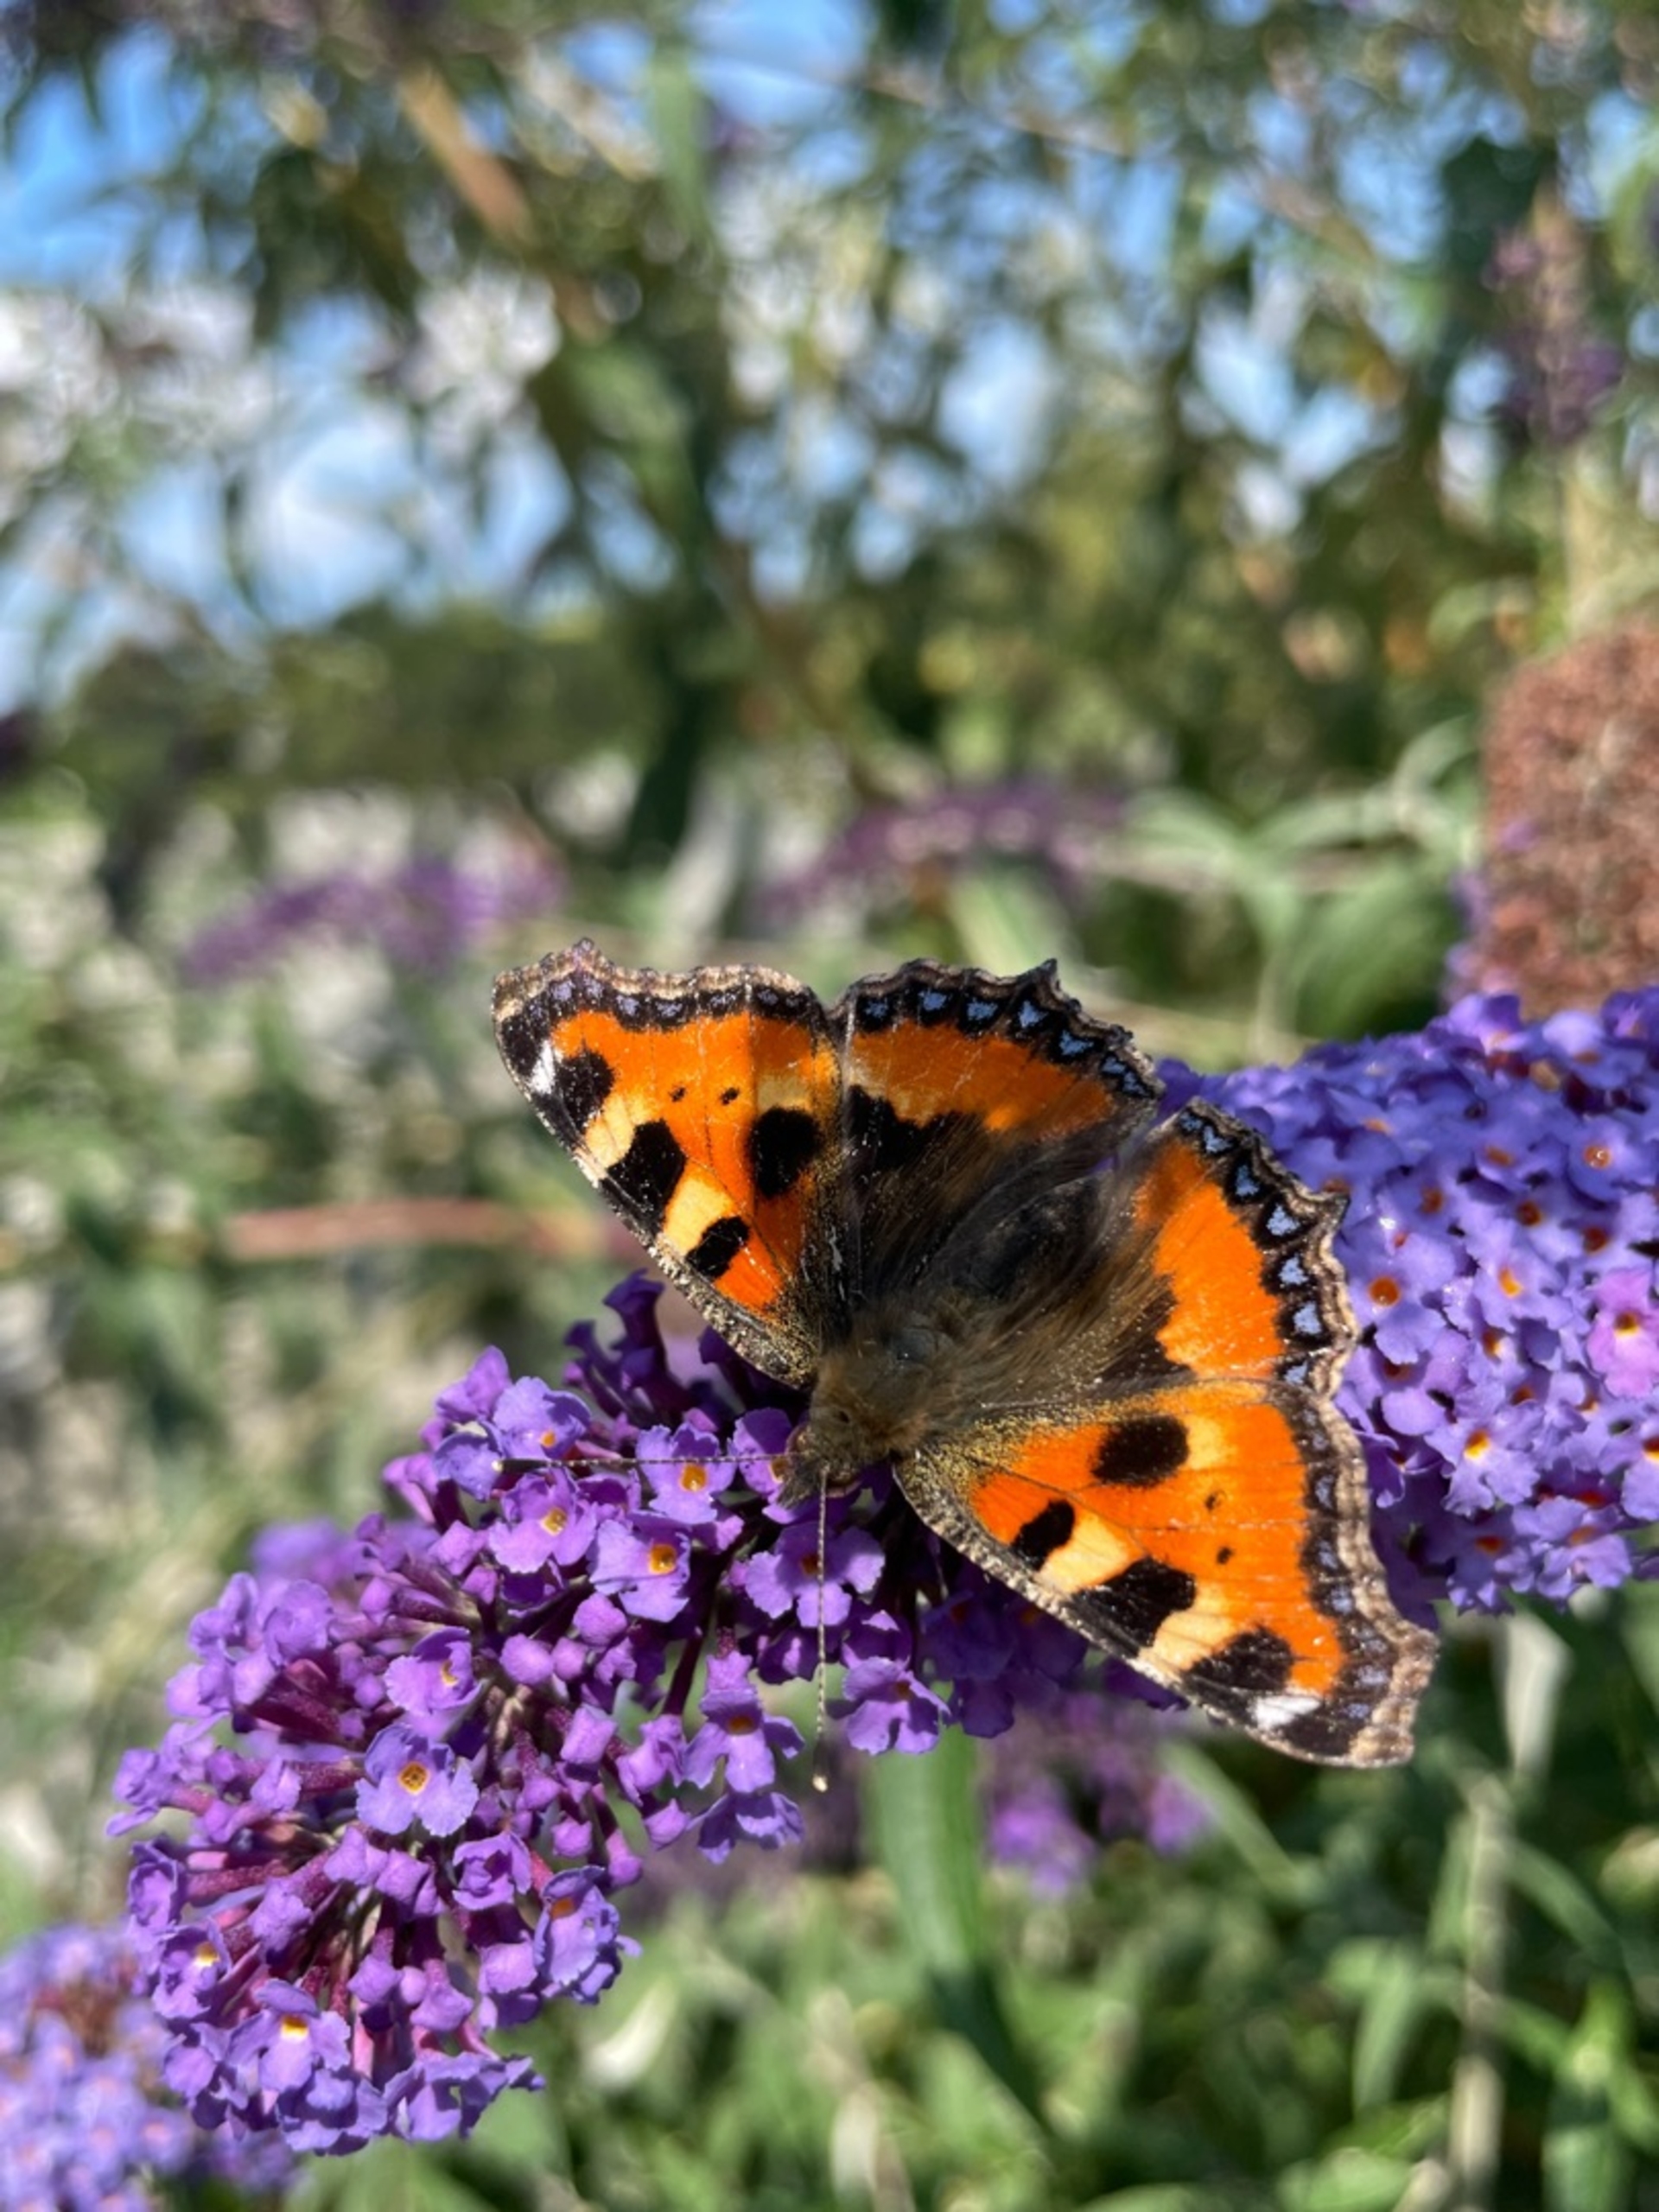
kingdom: Animalia
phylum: Arthropoda
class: Insecta
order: Lepidoptera
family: Nymphalidae
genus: Aglais
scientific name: Aglais urticae
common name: Nældens takvinge
